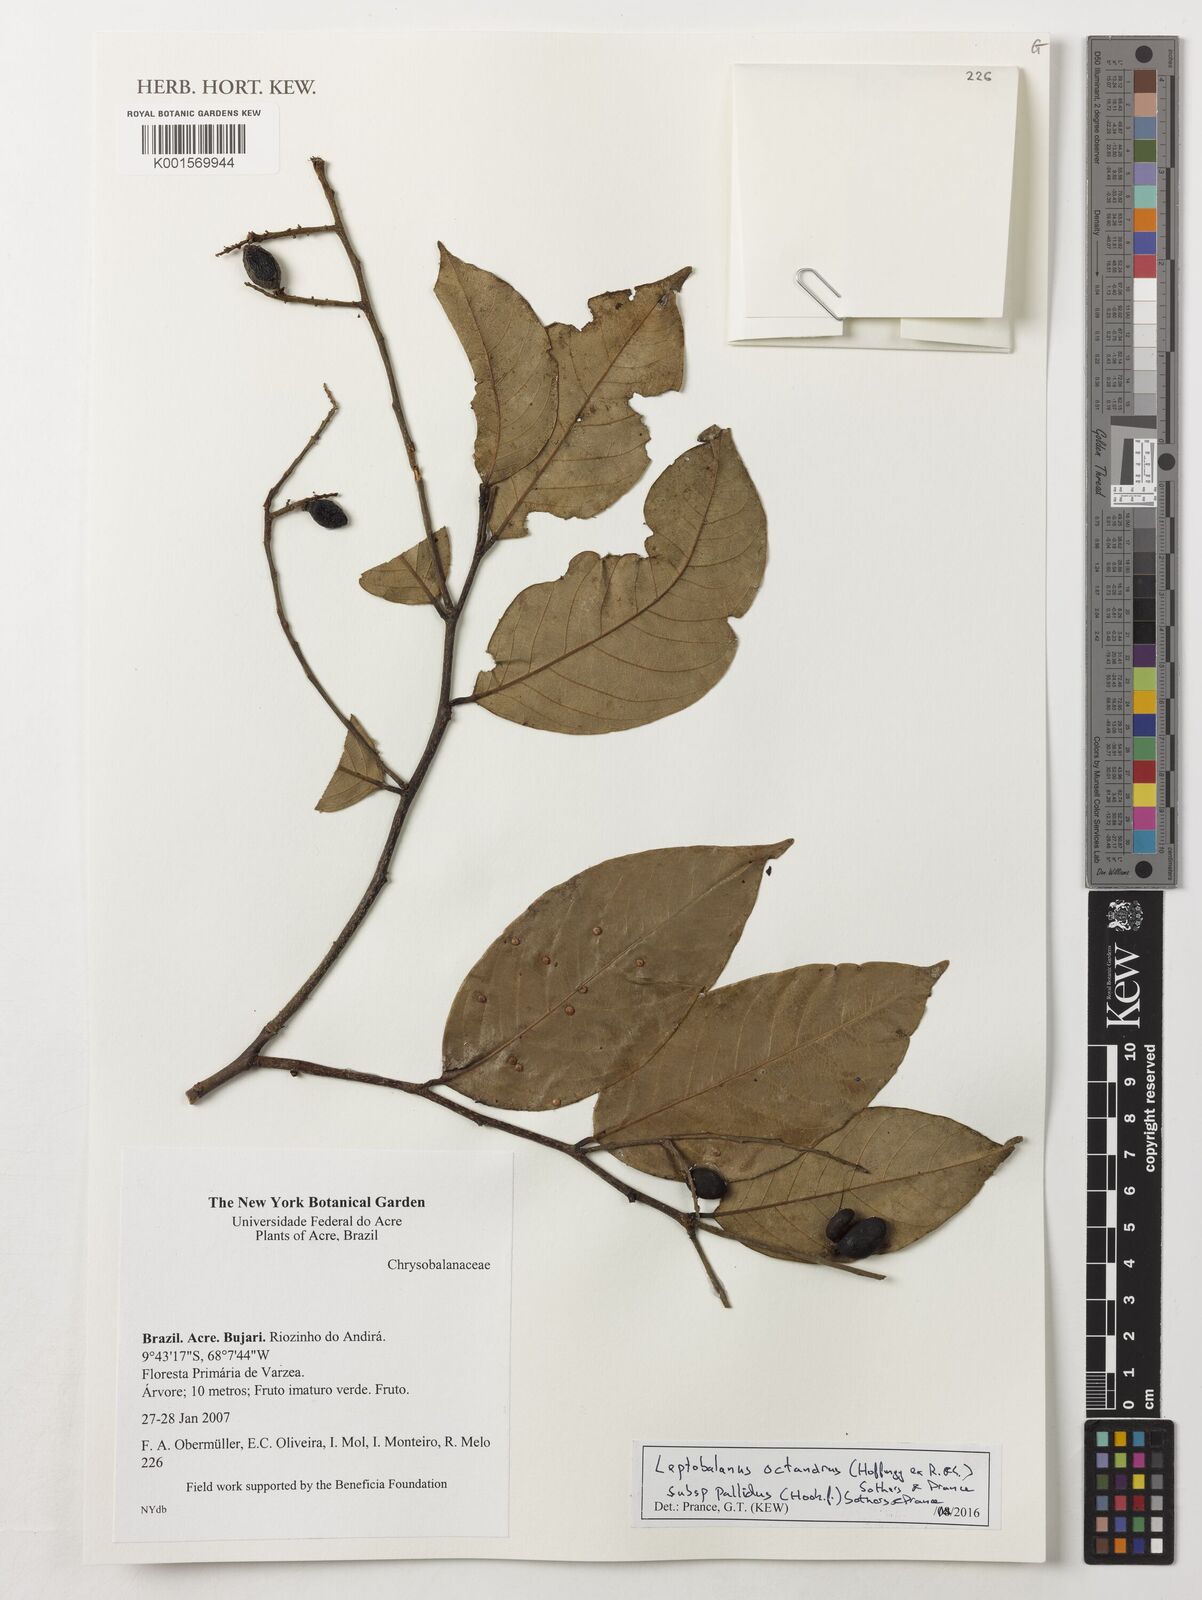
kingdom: Plantae
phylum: Tracheophyta
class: Magnoliopsida
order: Malpighiales
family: Chrysobalanaceae
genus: Leptobalanus
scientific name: Leptobalanus octandrus
